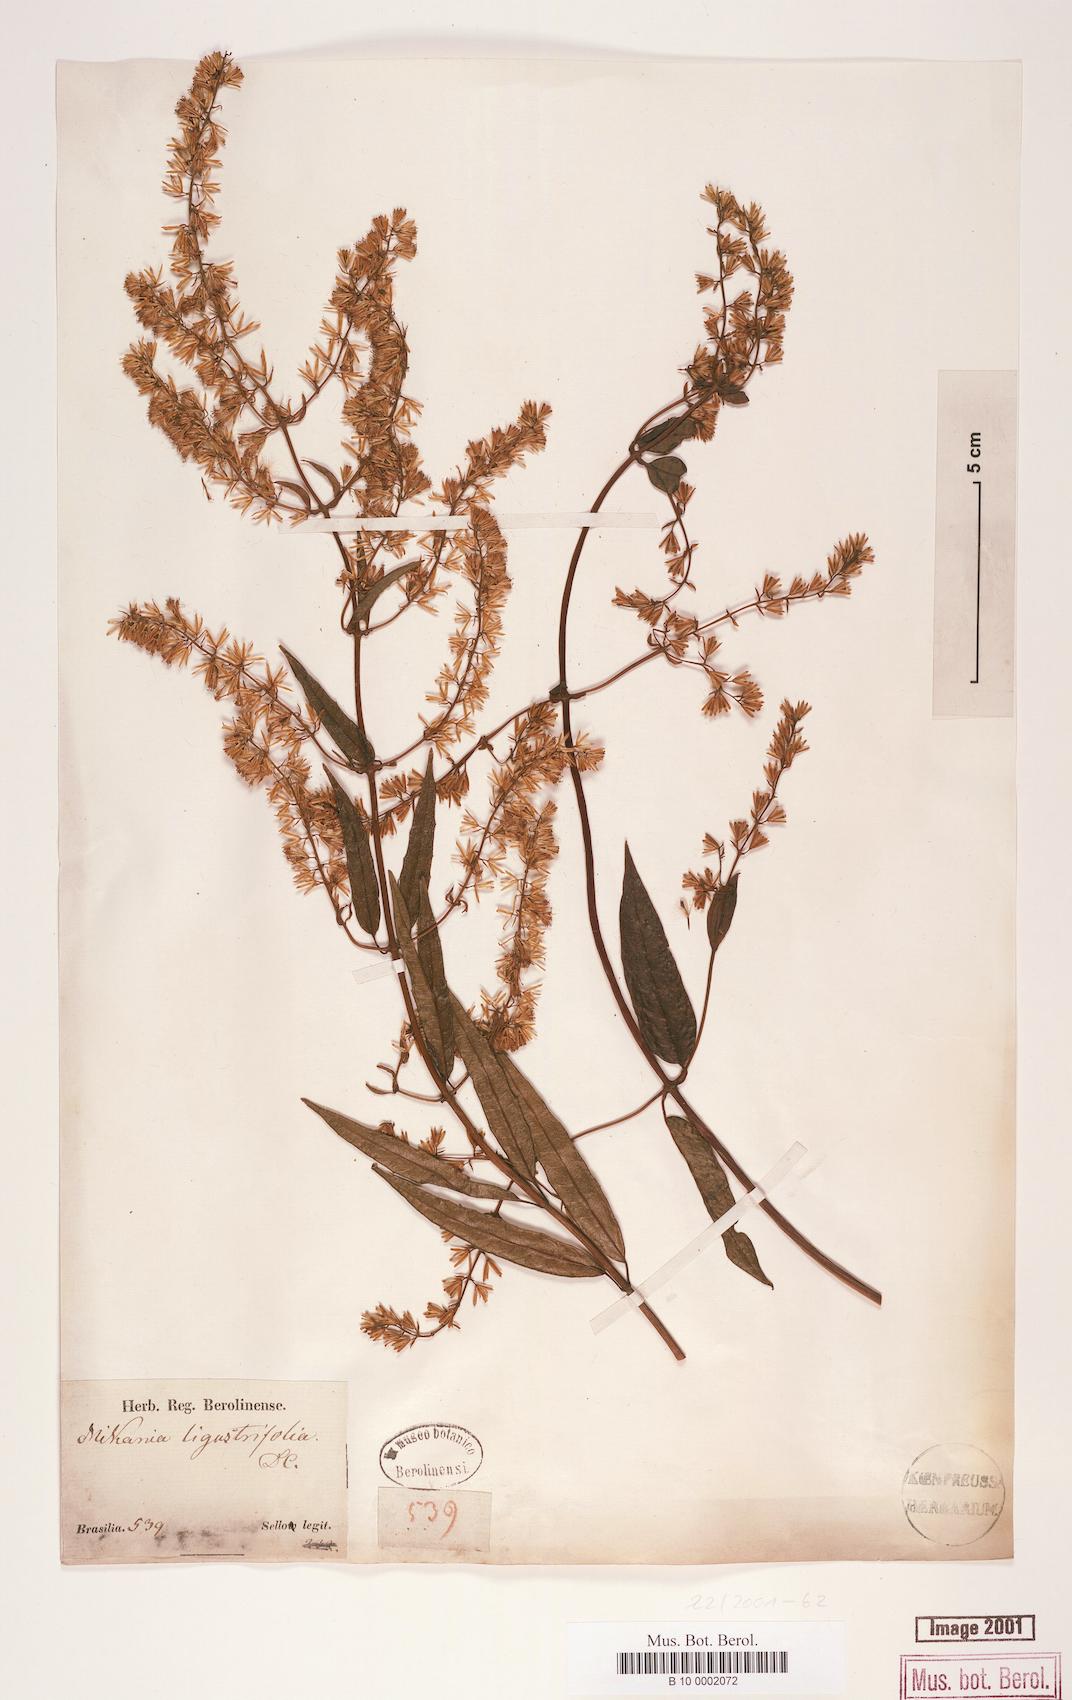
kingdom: Plantae
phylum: Tracheophyta
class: Magnoliopsida
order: Asterales
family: Asteraceae
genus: Mikania
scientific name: Mikania ligustrifolia
